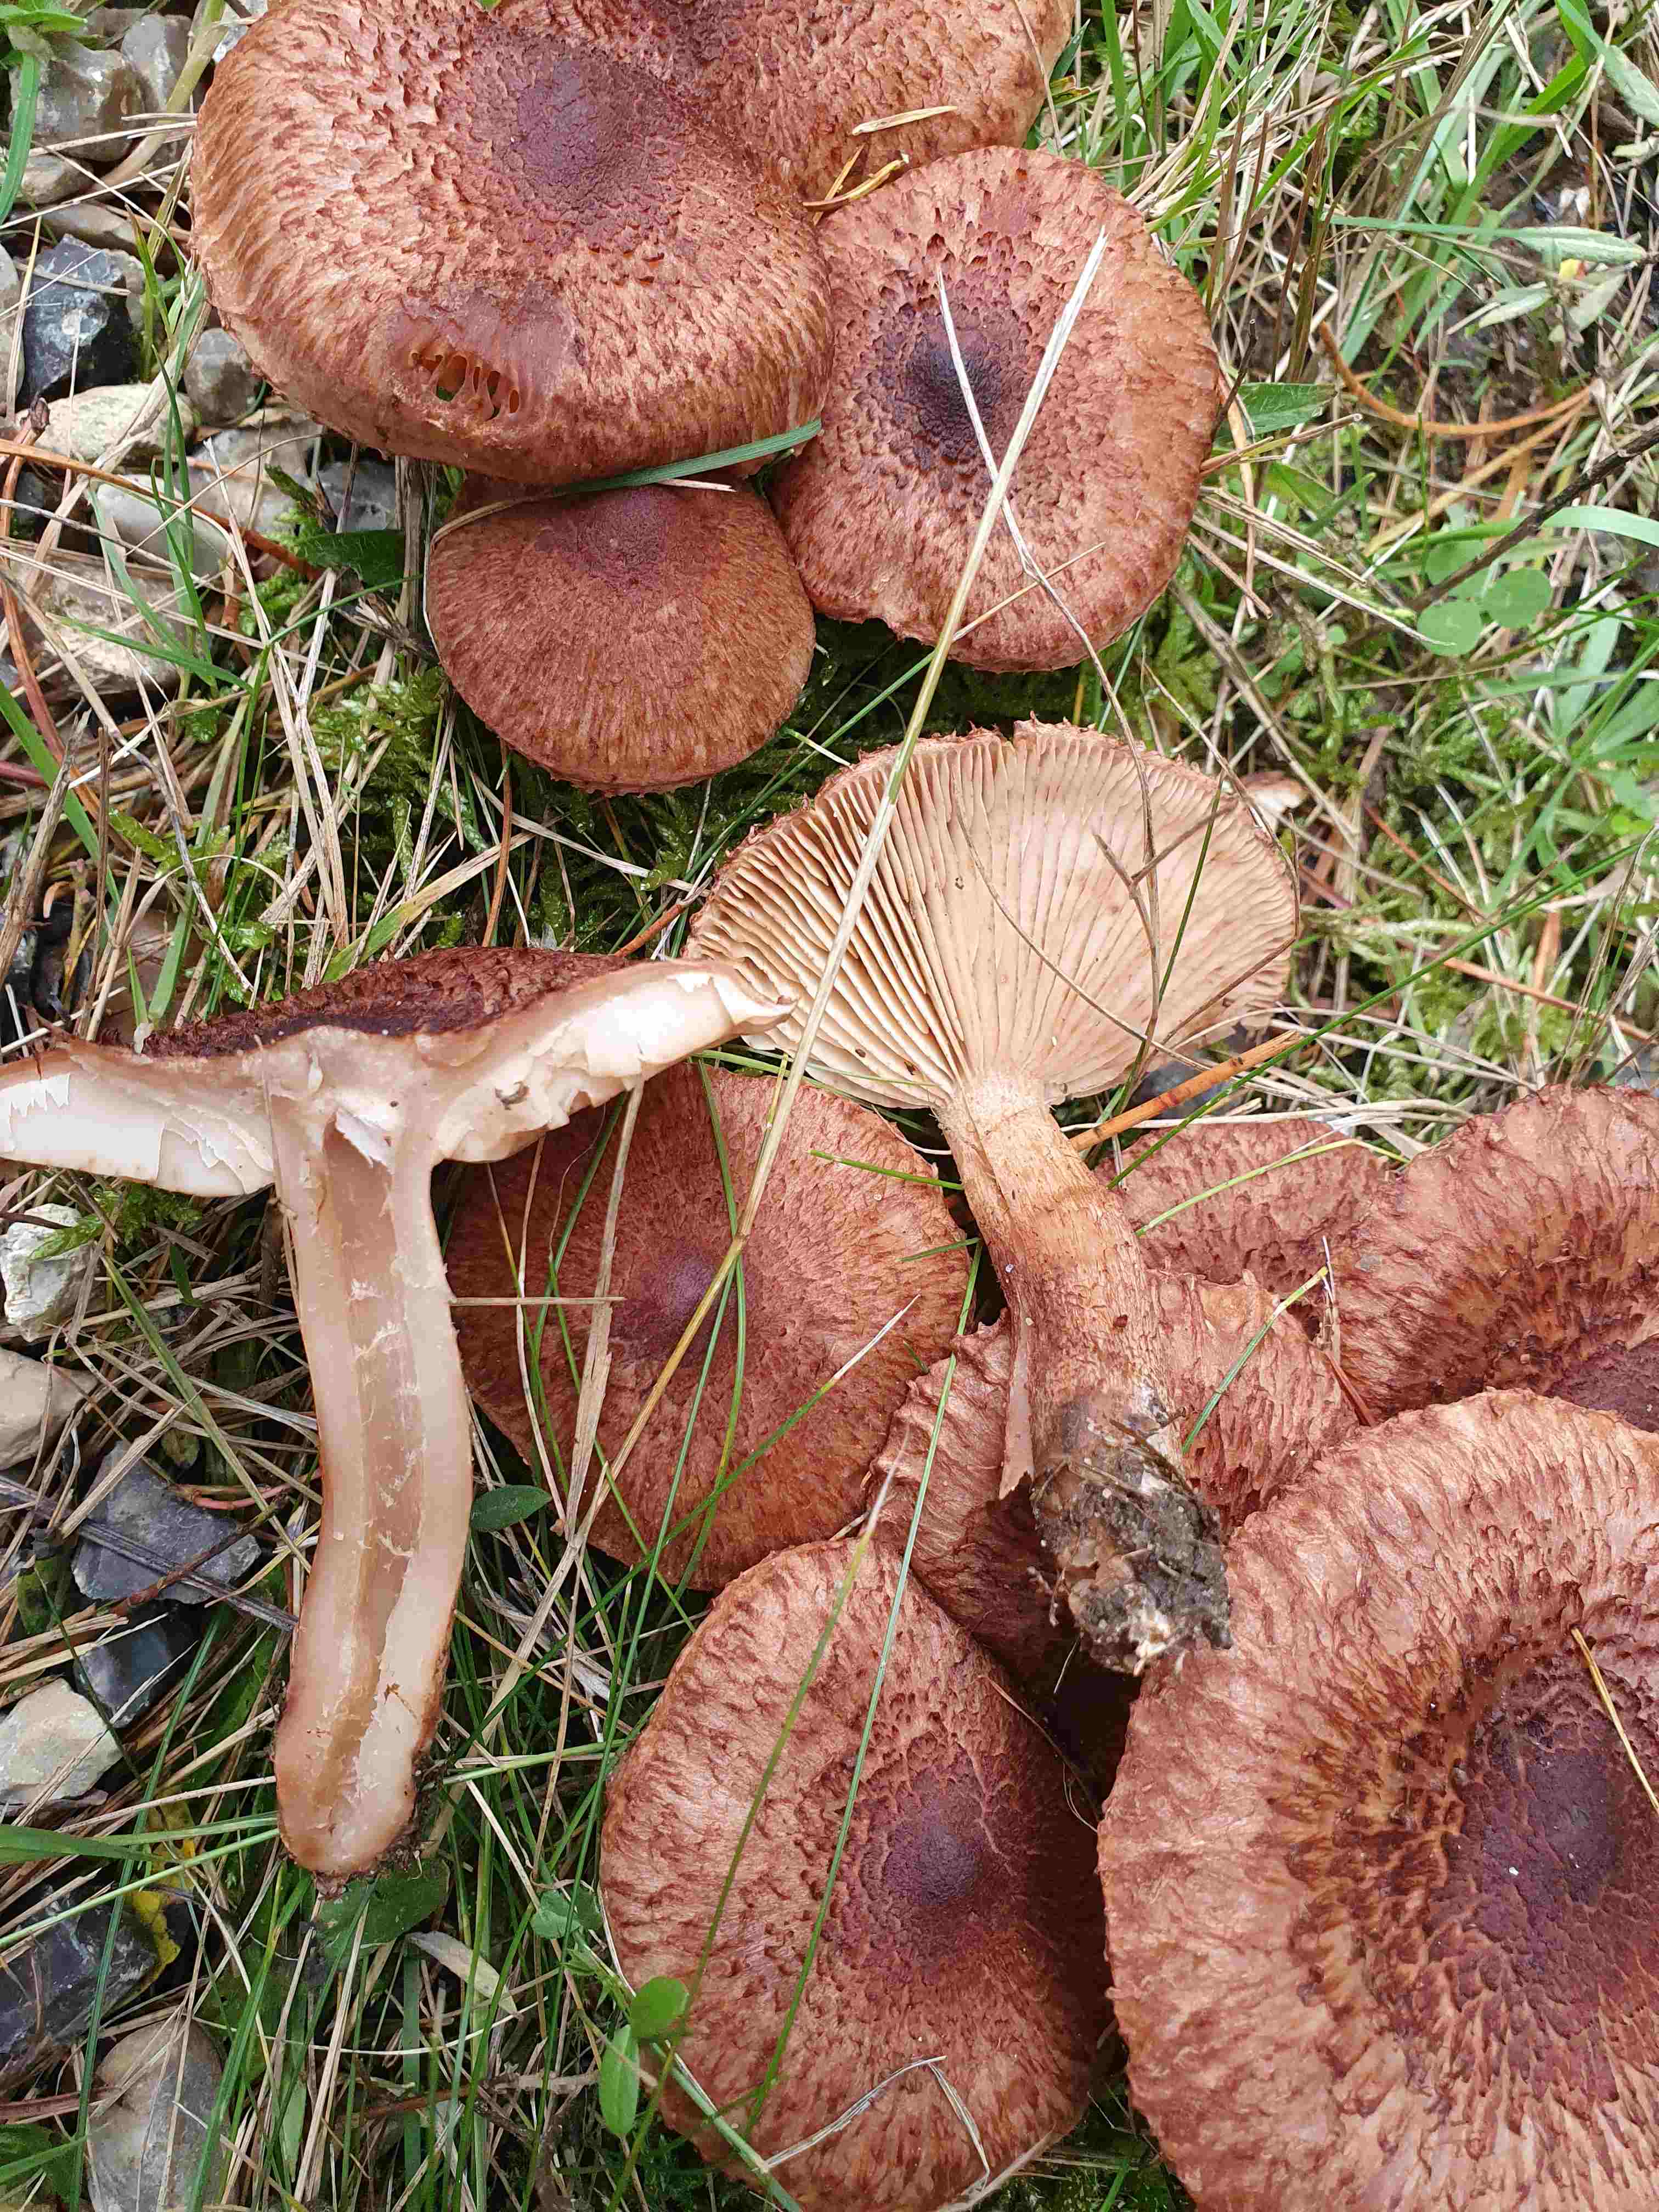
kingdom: Fungi
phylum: Basidiomycota
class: Agaricomycetes
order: Agaricales
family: Tricholomataceae
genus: Tricholoma
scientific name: Tricholoma vaccinum
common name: ko-ridderhat
